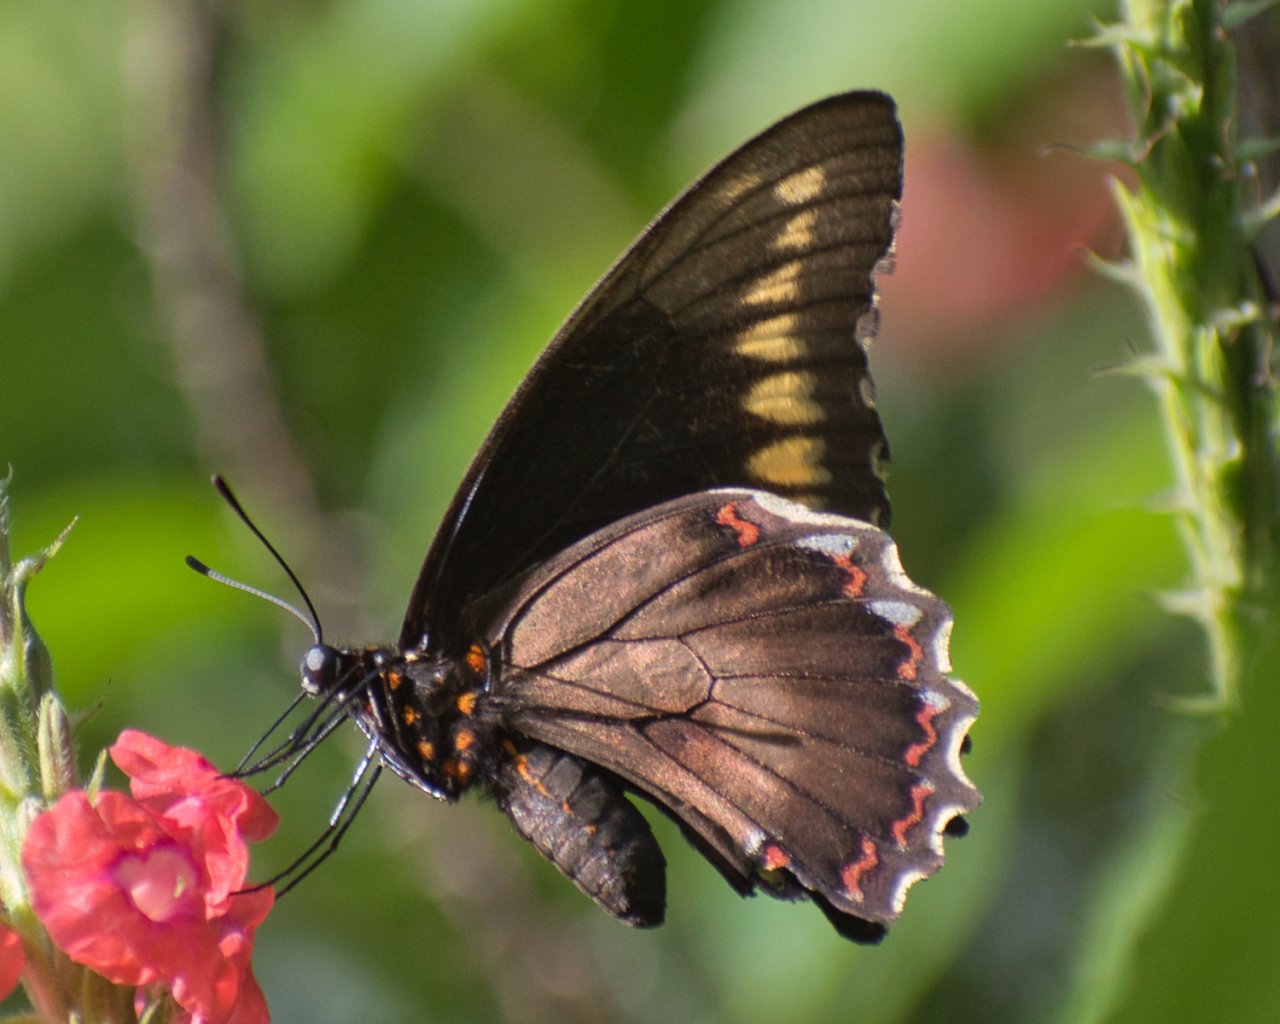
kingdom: Animalia
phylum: Arthropoda
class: Insecta
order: Lepidoptera
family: Papilionidae
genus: Battus
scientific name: Battus polydamas
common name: Polydamas Swallowtail
